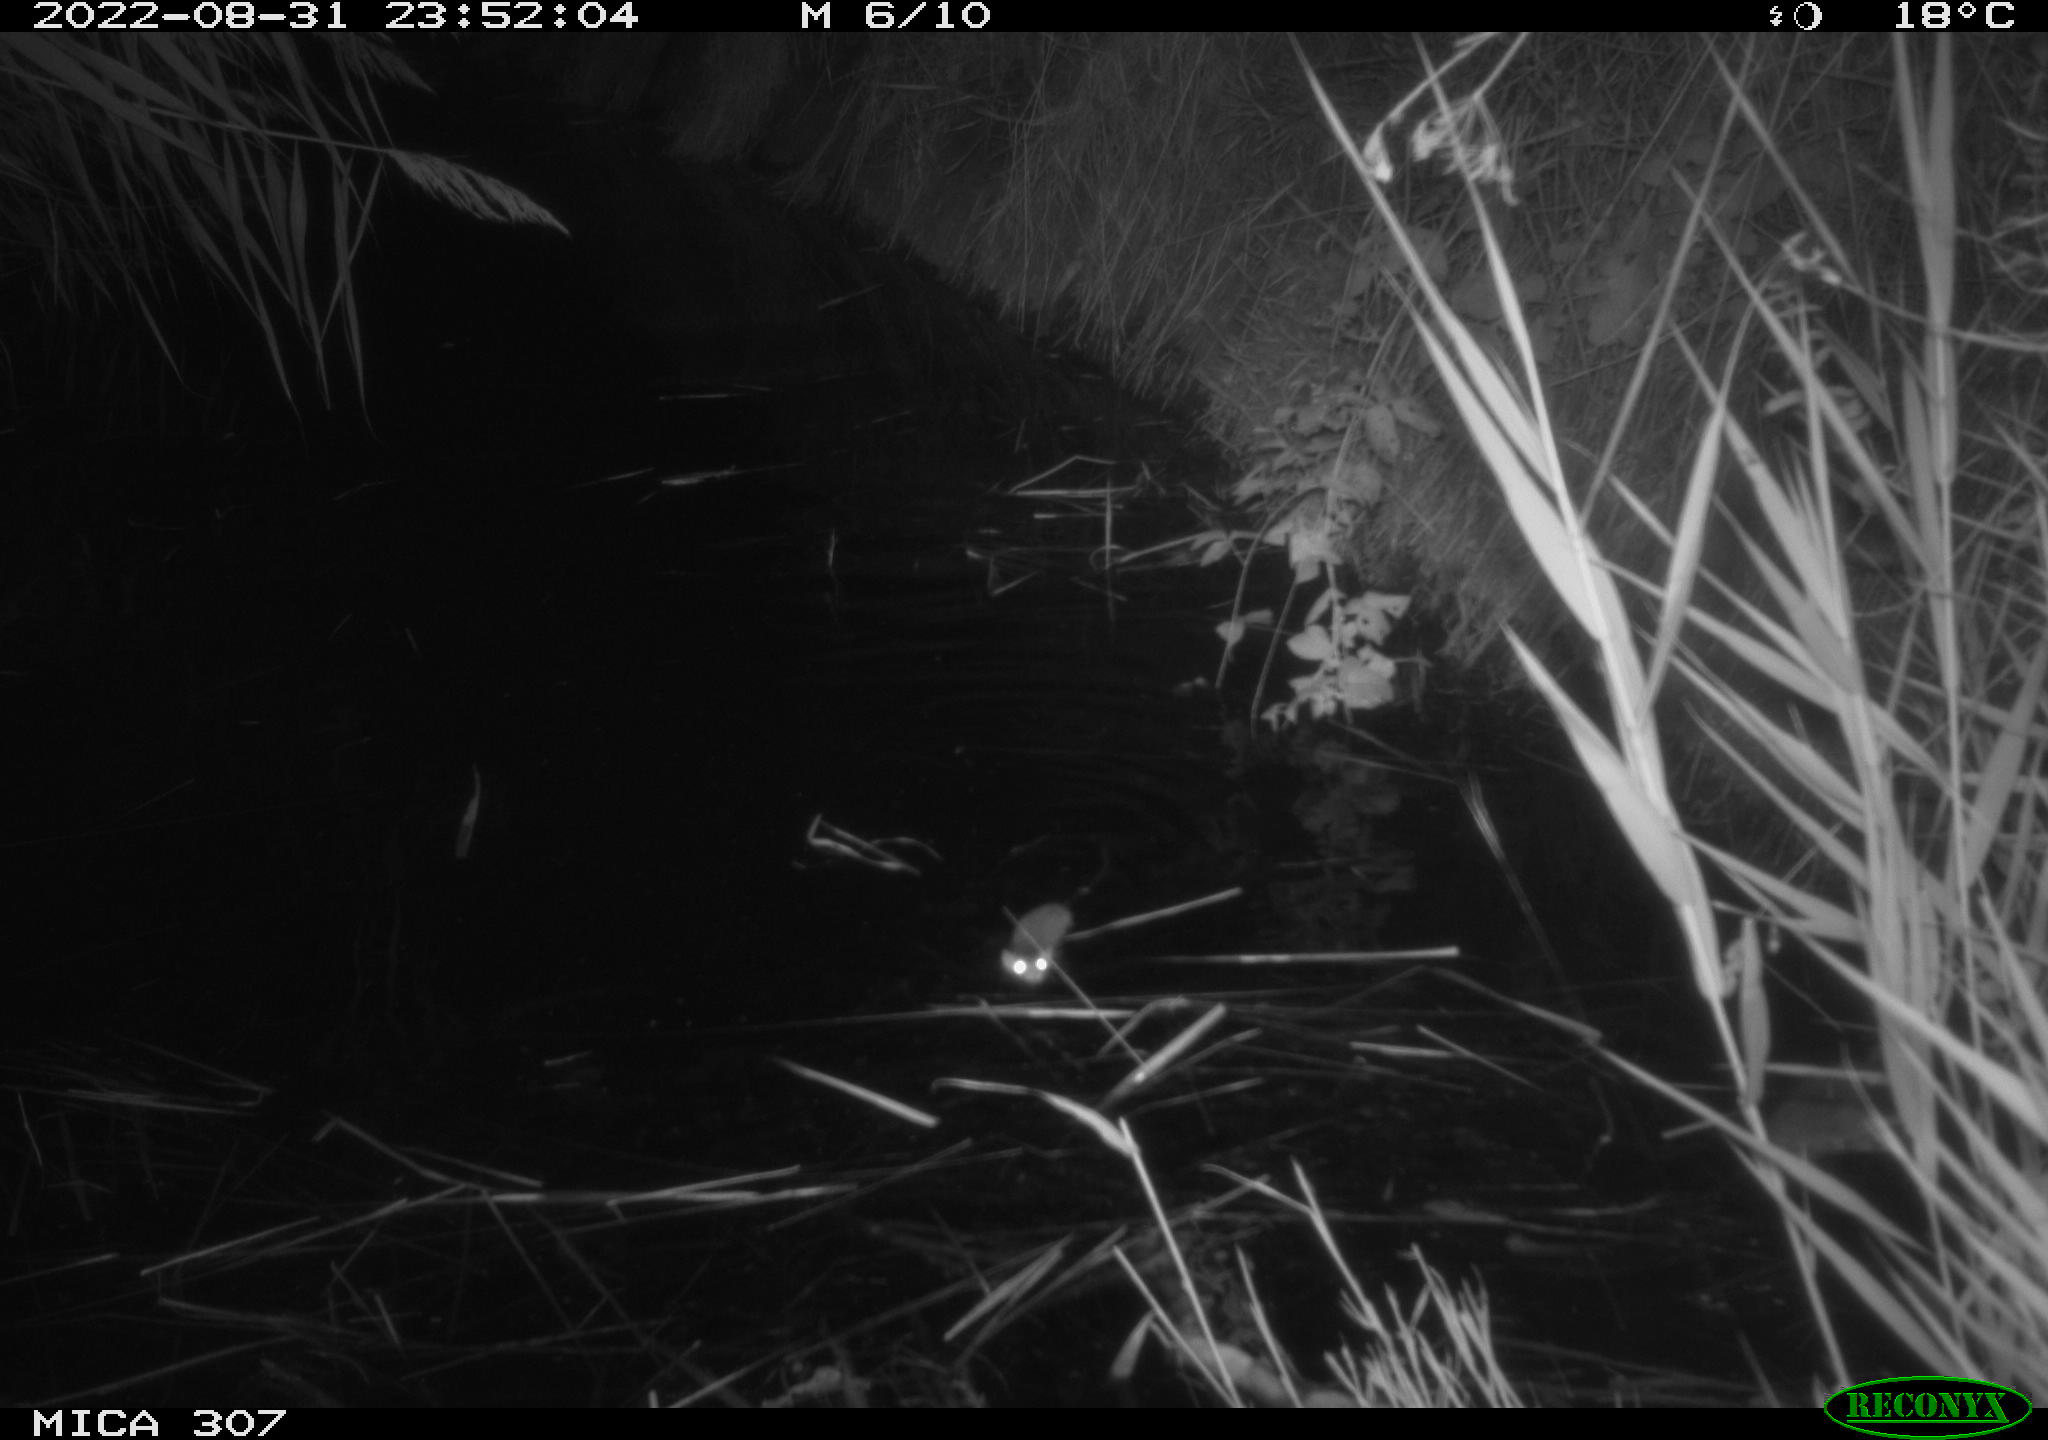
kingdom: Animalia
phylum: Chordata
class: Mammalia
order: Rodentia
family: Muridae
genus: Rattus
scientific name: Rattus norvegicus
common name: Brown rat
